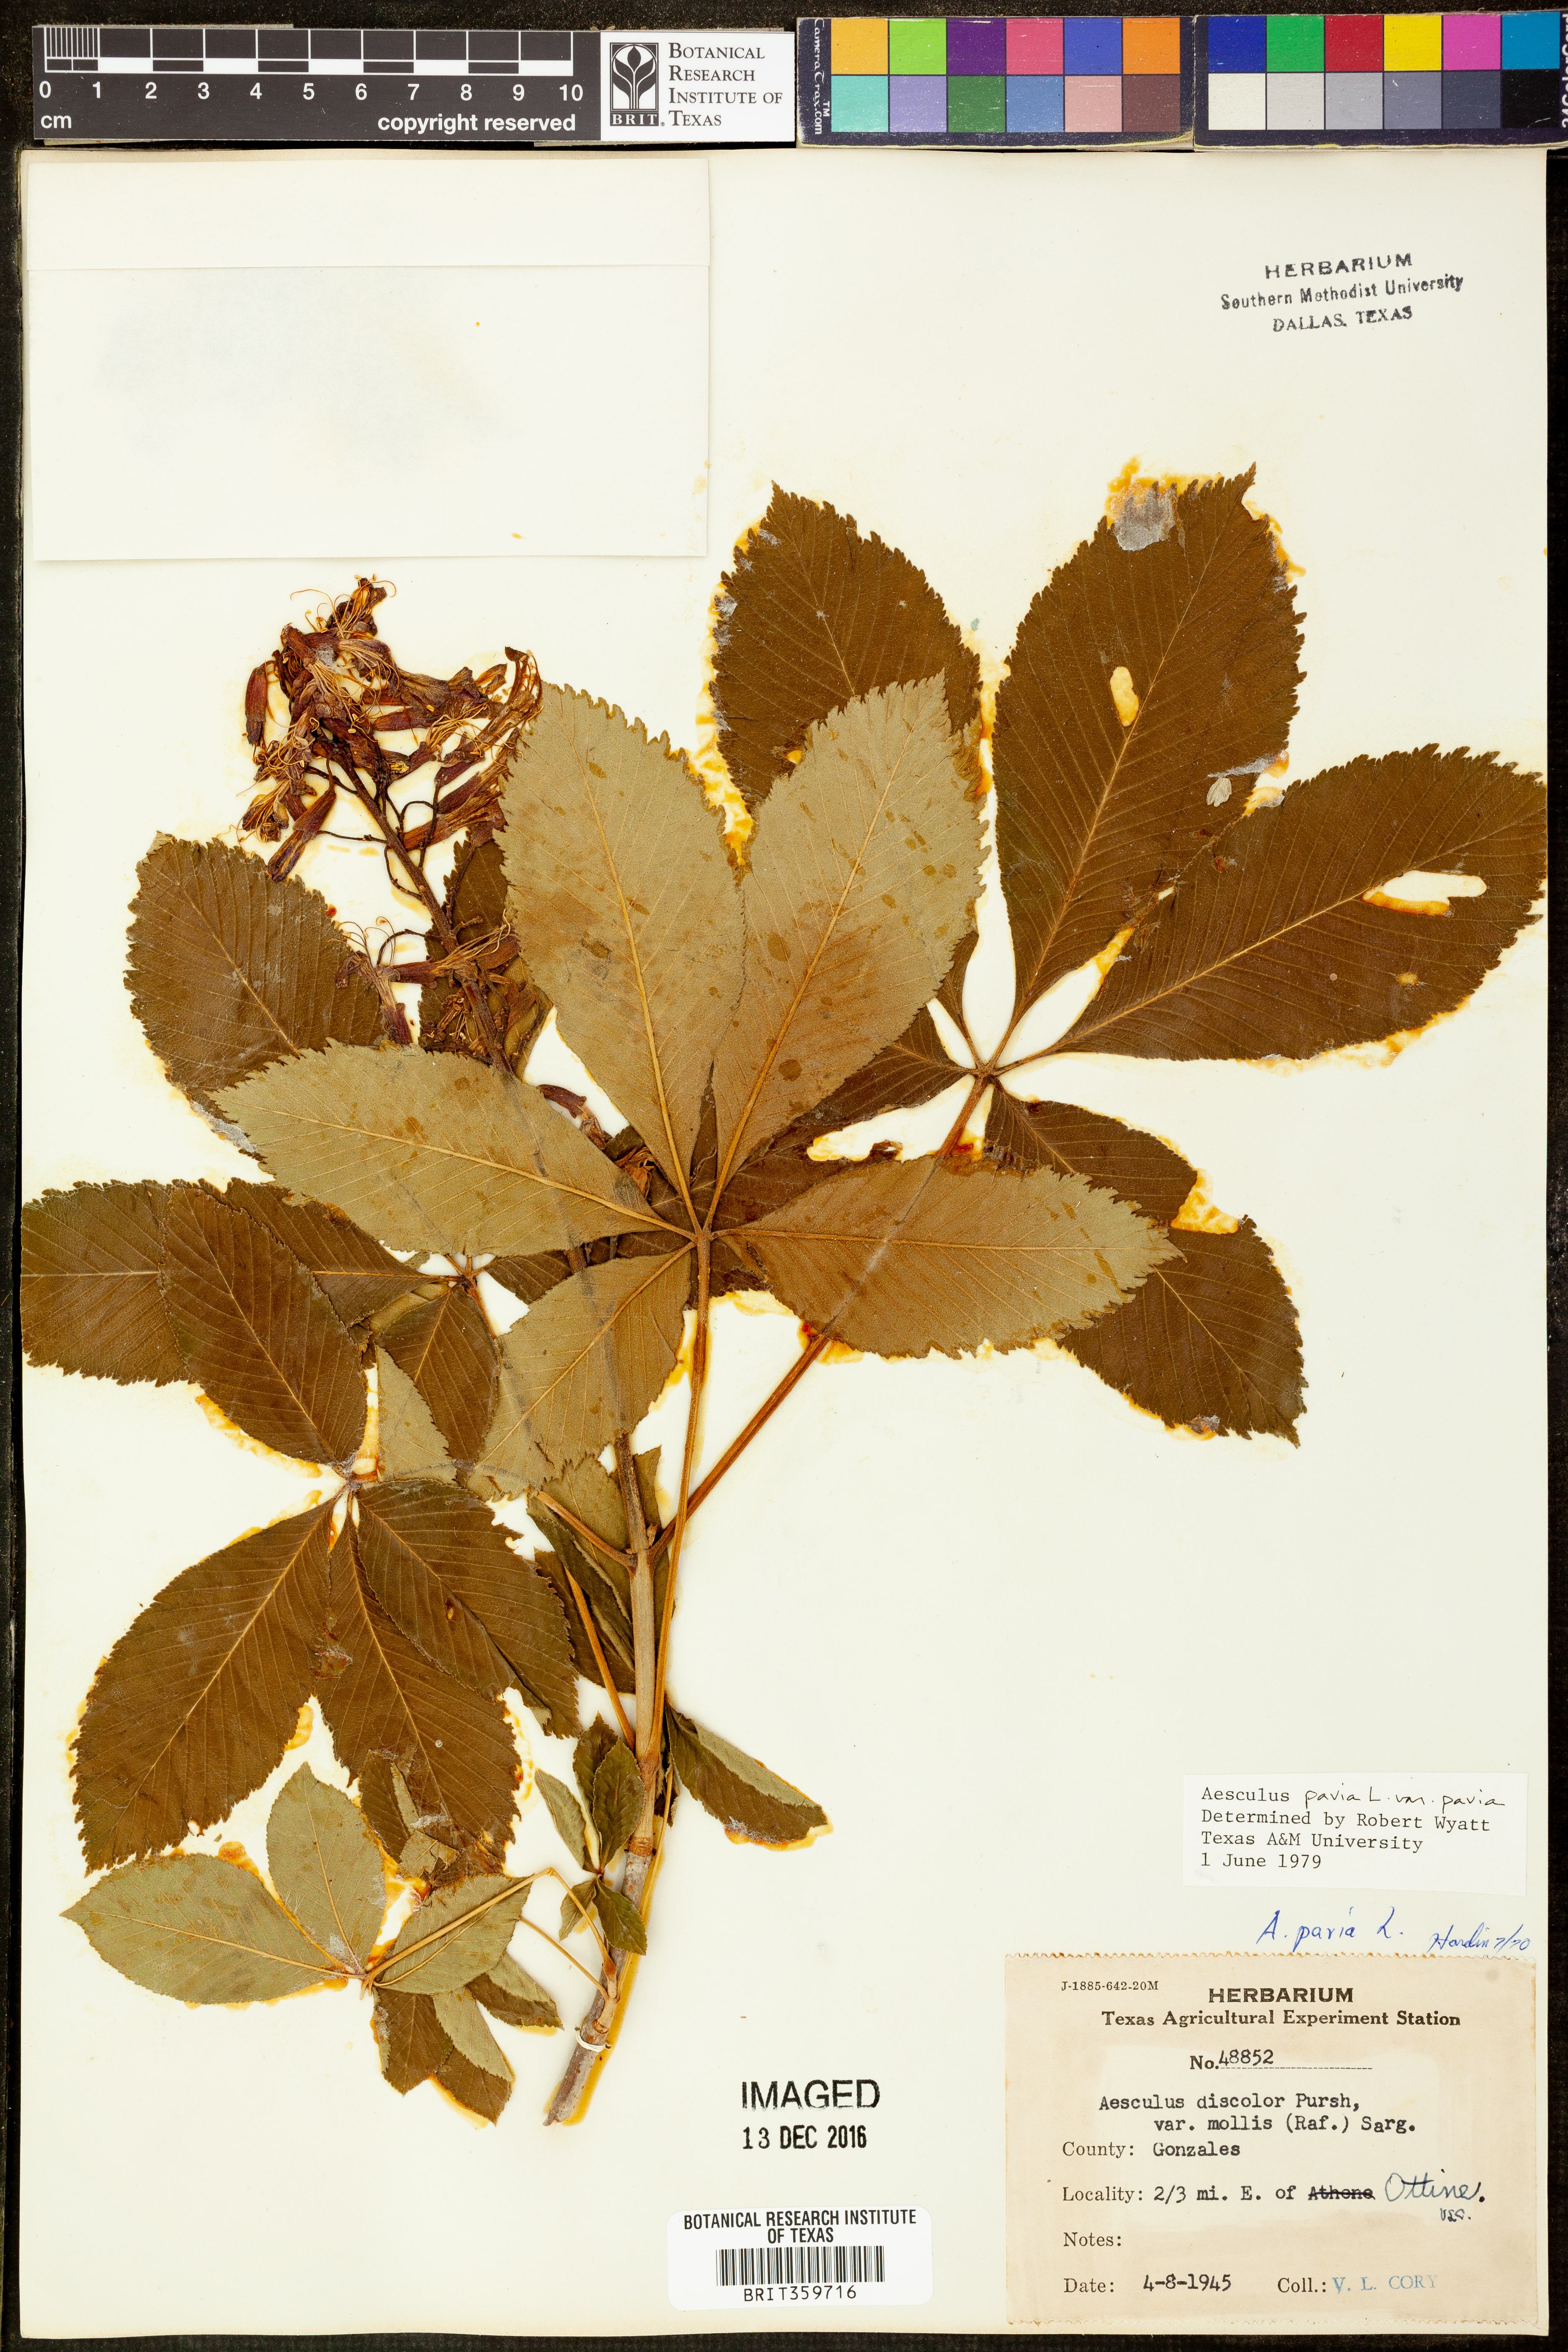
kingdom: Plantae
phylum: Tracheophyta
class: Magnoliopsida
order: Sapindales
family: Sapindaceae
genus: Aesculus
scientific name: Aesculus pavia
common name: Red buckeye
